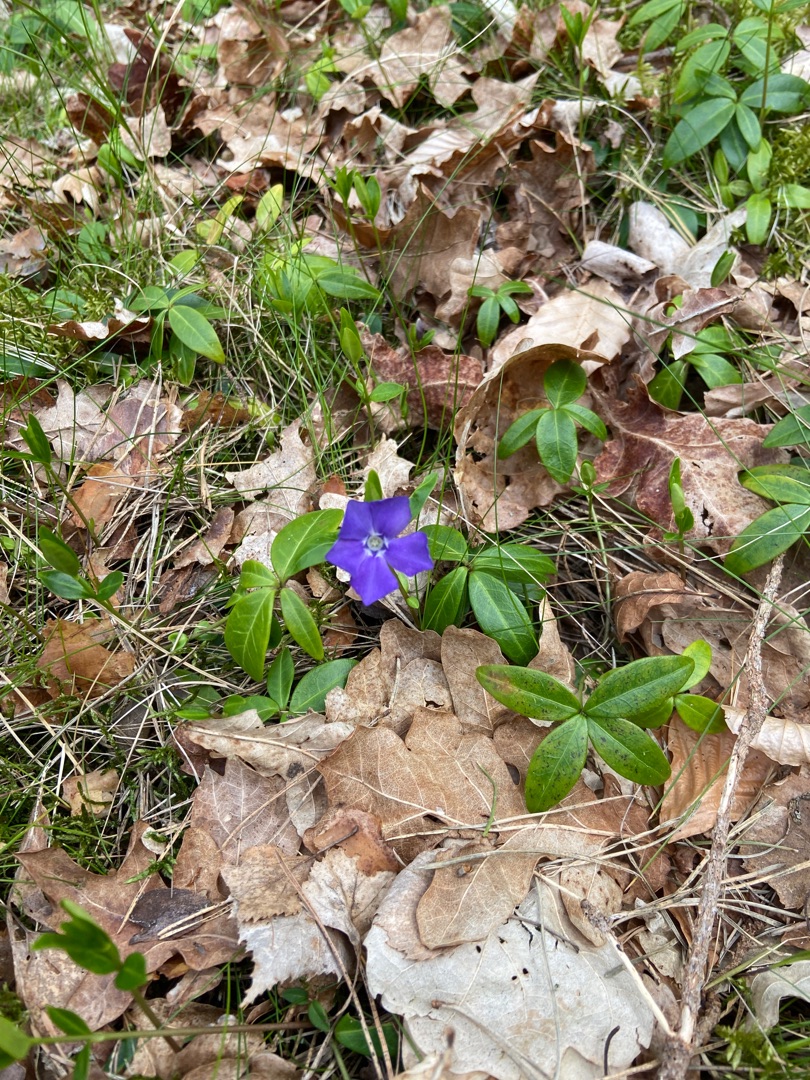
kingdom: Plantae
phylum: Tracheophyta
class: Magnoliopsida
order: Gentianales
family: Apocynaceae
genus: Vinca
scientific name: Vinca minor
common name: Liden singrøn
